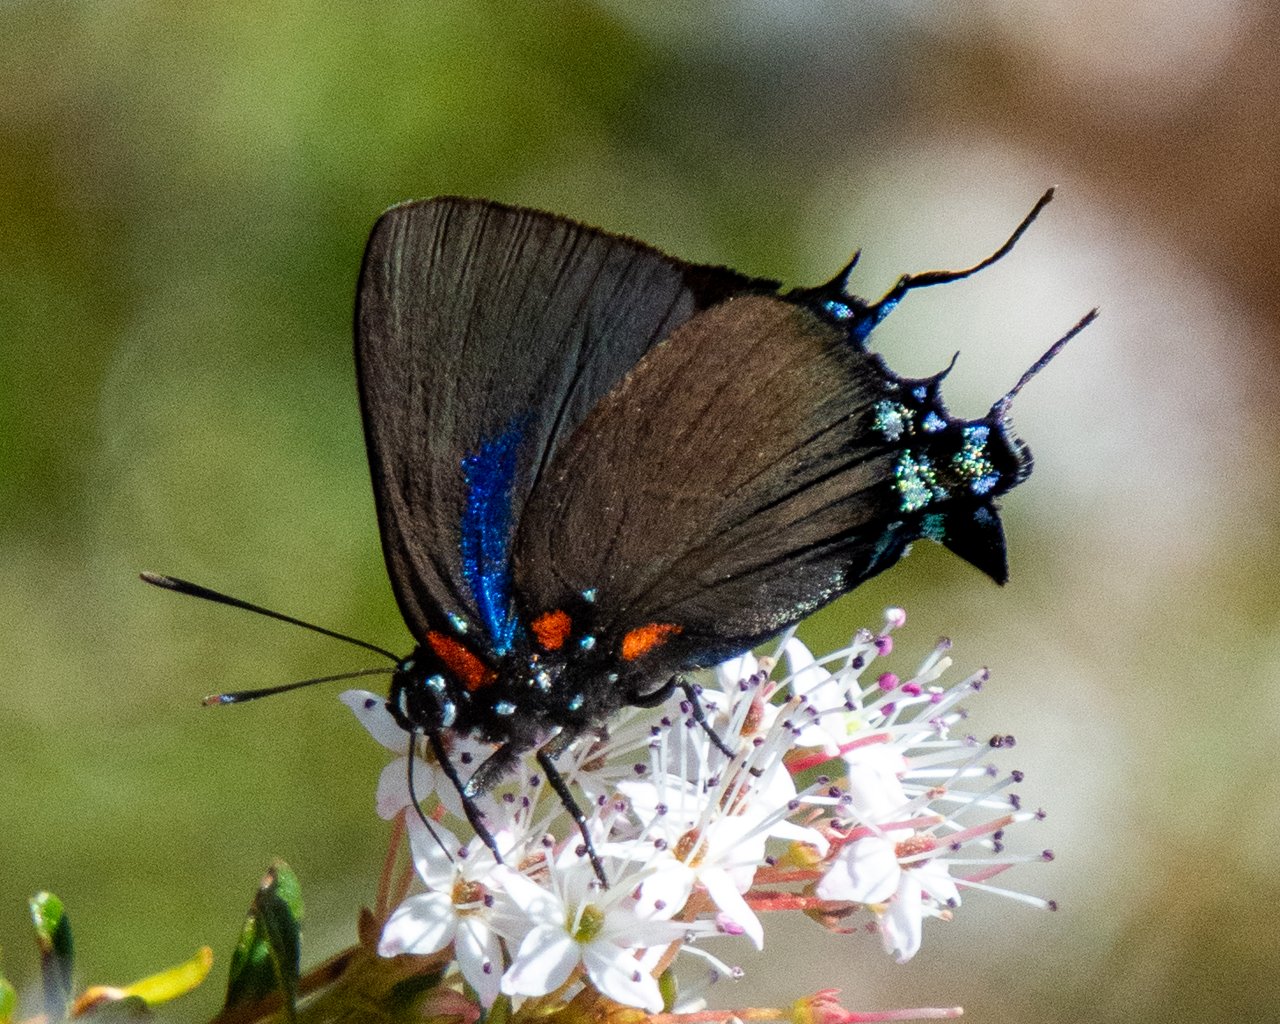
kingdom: Animalia
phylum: Arthropoda
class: Insecta
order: Lepidoptera
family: Lycaenidae
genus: Atlides
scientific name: Atlides halesus
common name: Great Purple Hairstreak
